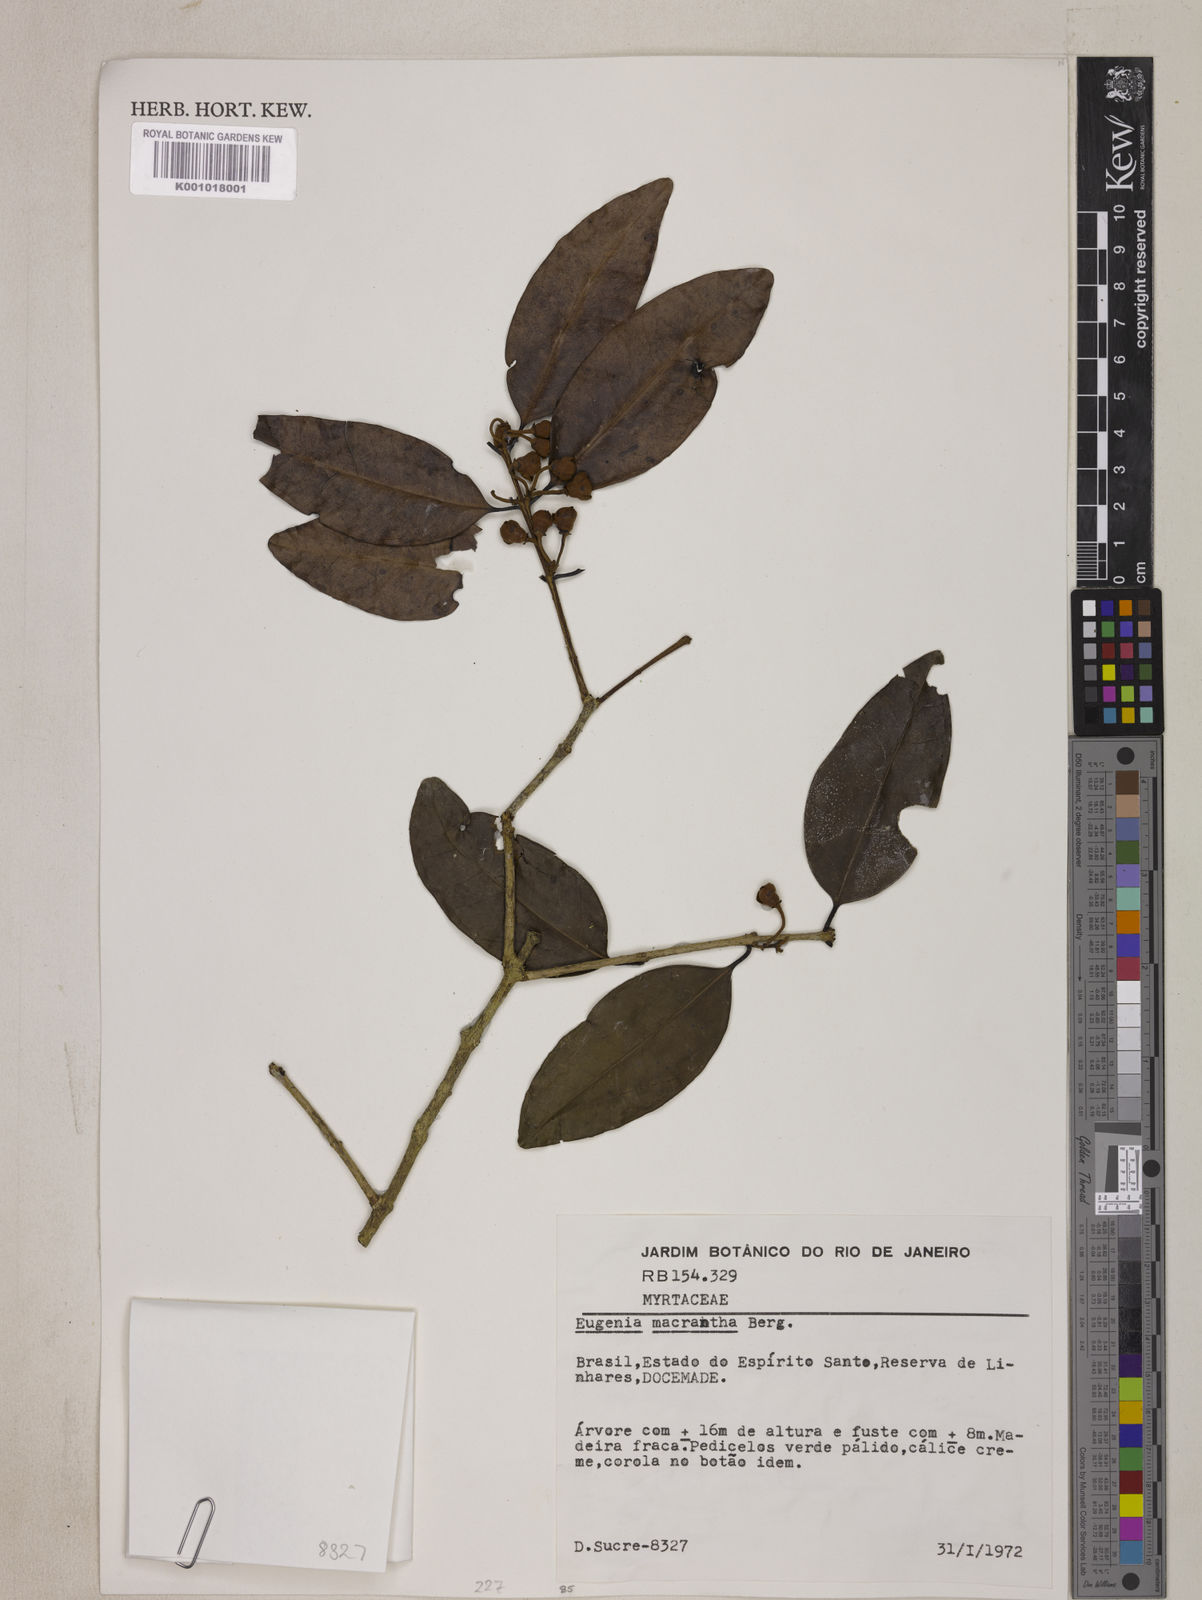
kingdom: Plantae
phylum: Tracheophyta
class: Magnoliopsida
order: Myrtales
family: Myrtaceae
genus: Eugenia
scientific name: Eugenia macrantha
